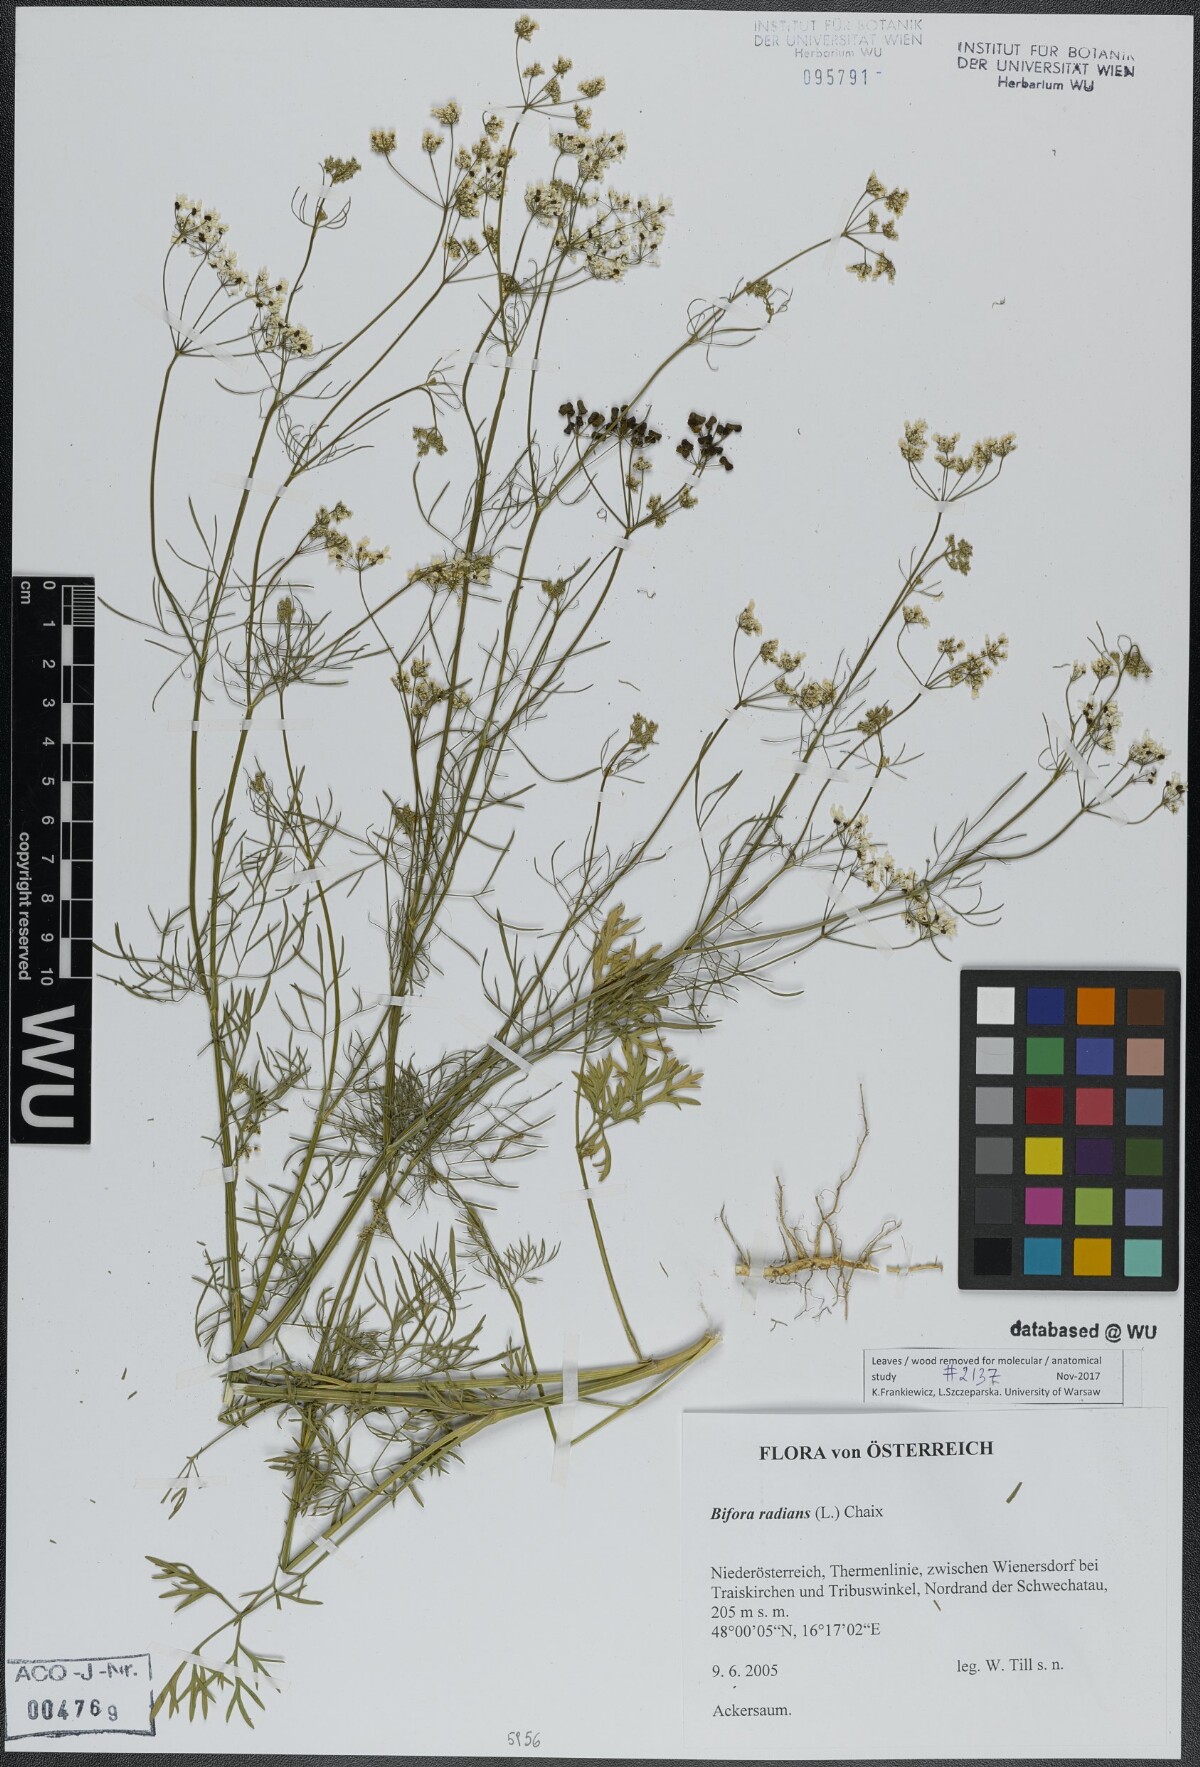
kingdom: Plantae
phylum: Tracheophyta
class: Magnoliopsida
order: Apiales
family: Apiaceae
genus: Bifora
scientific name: Bifora radians
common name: Wild bishop
